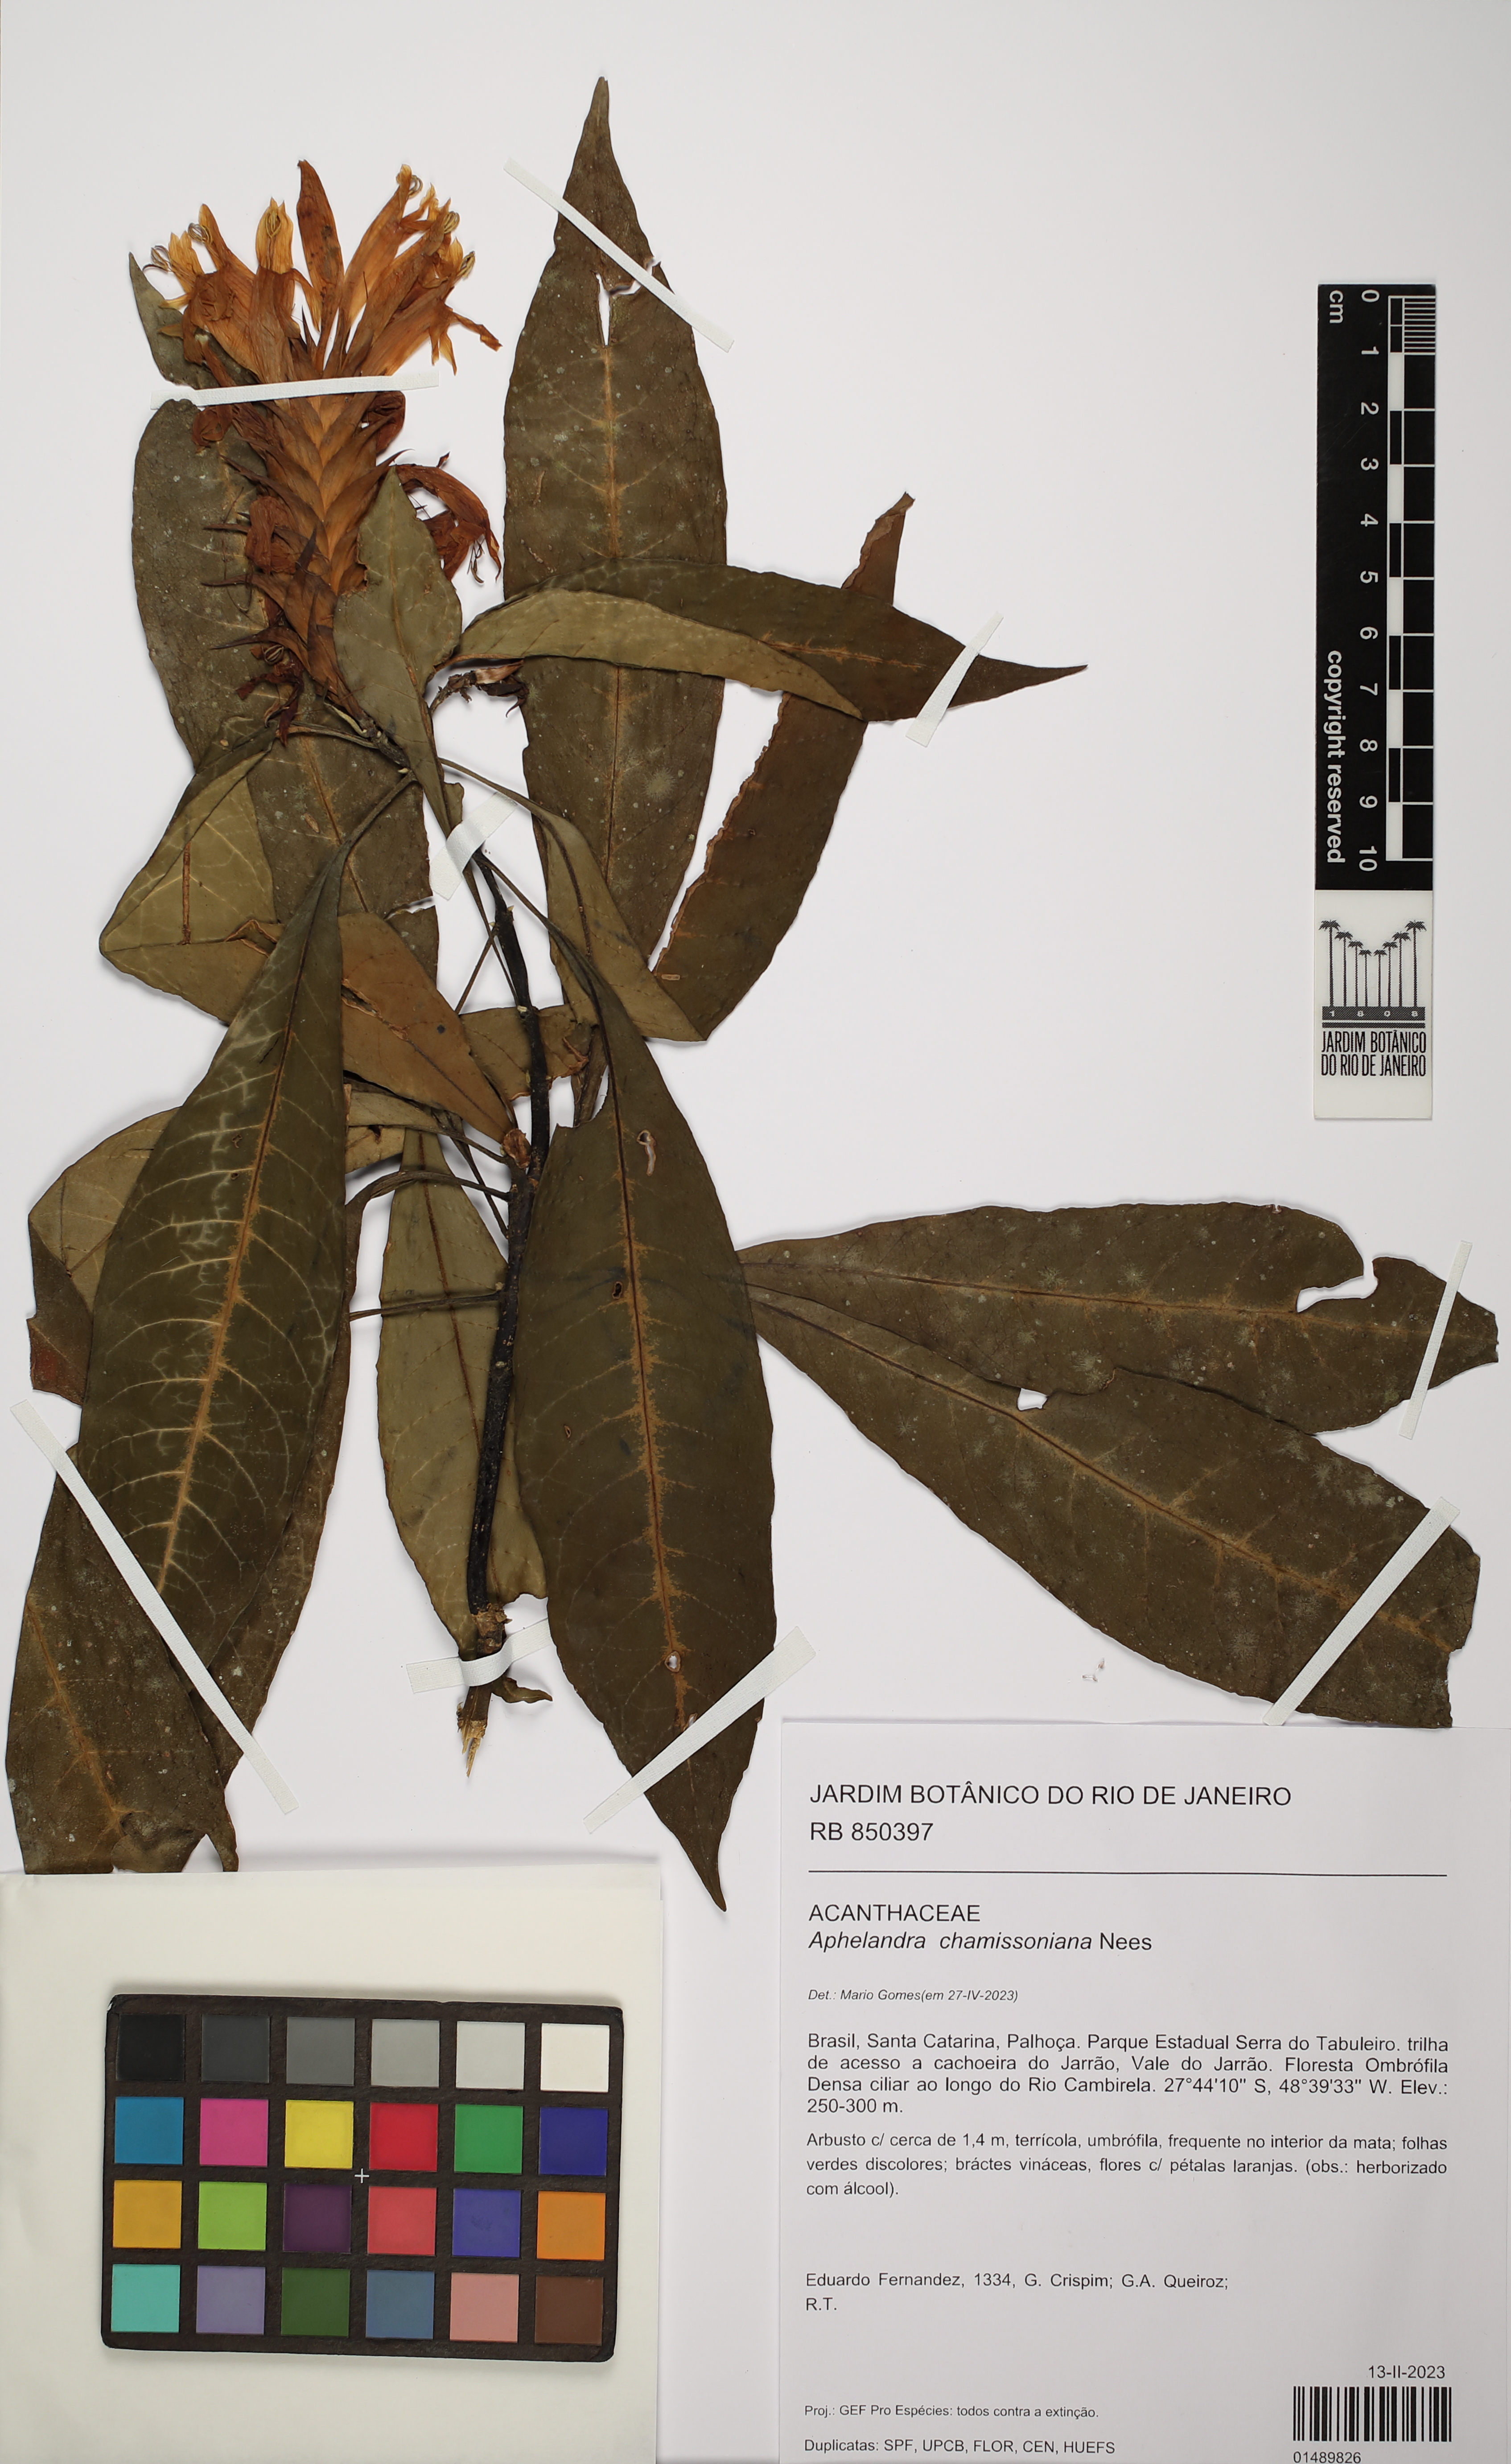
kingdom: Plantae
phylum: Tracheophyta
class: Magnoliopsida
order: Lamiales
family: Acanthaceae
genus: Aphelandra
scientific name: Aphelandra chamissoniana
